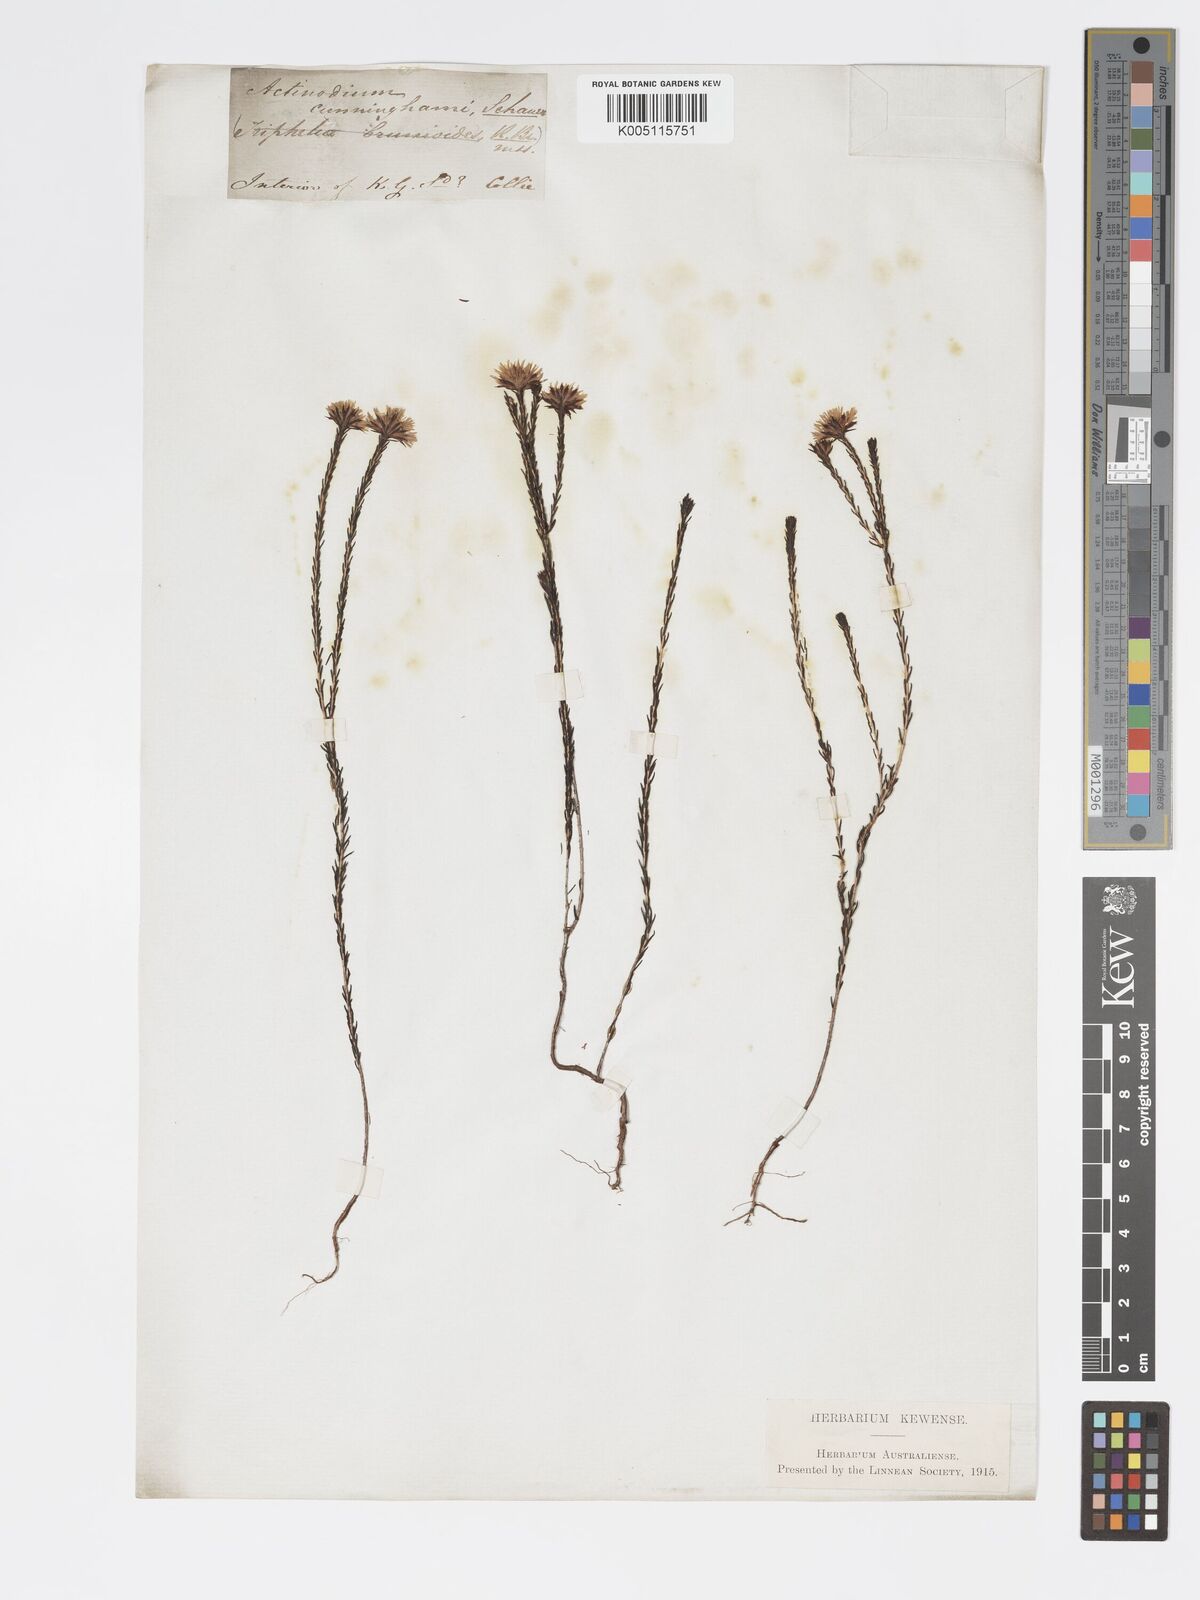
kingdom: Plantae
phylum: Tracheophyta
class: Magnoliopsida
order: Myrtales
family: Myrtaceae
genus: Actinodium
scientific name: Actinodium cunninghamii
